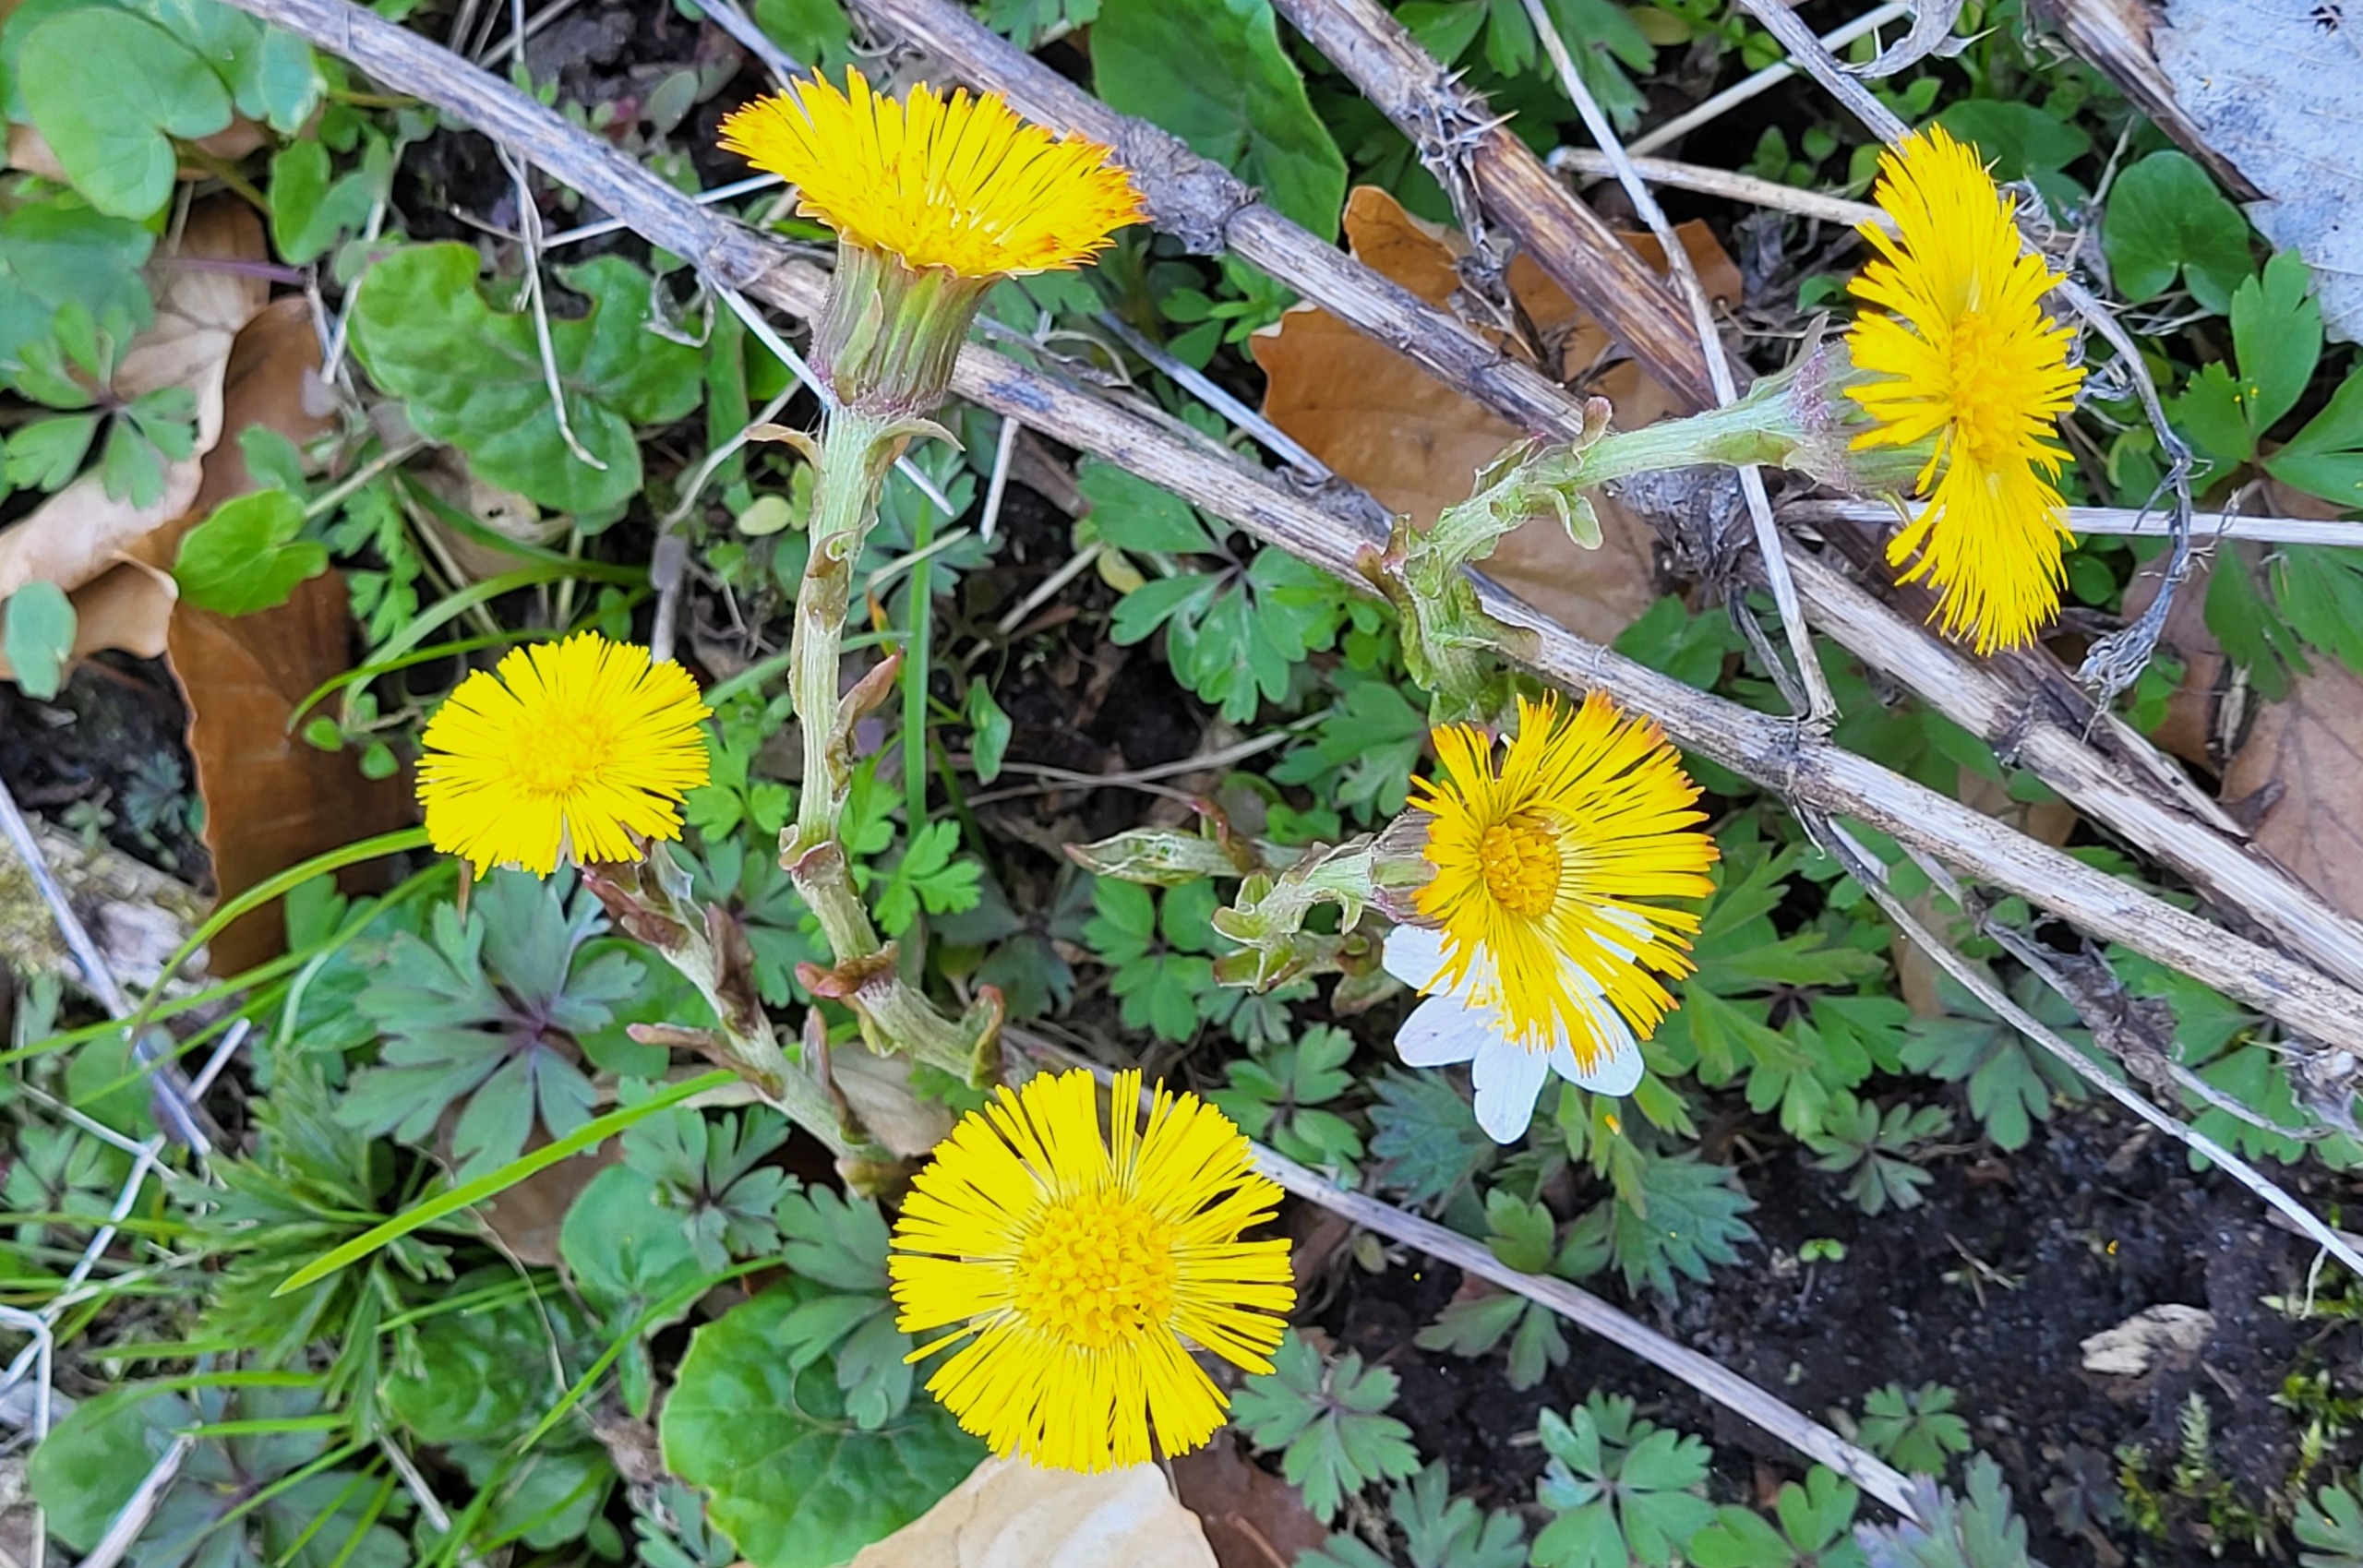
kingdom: Plantae
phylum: Tracheophyta
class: Magnoliopsida
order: Asterales
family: Asteraceae
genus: Tussilago
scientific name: Tussilago farfara
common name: Følfod
